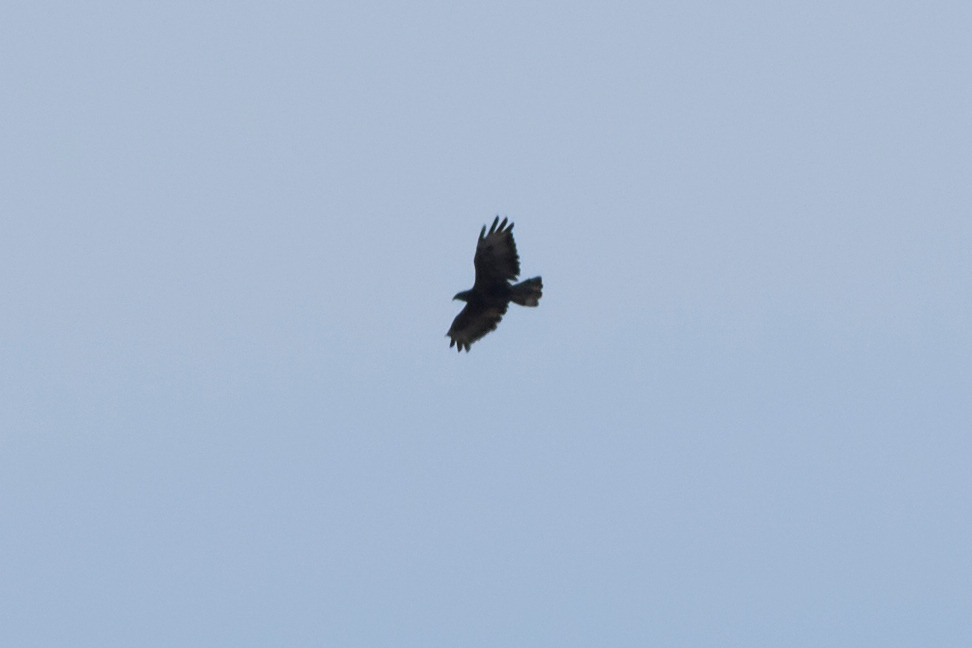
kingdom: Animalia
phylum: Chordata
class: Aves
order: Accipitriformes
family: Accipitridae
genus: Pernis
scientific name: Pernis apivorus
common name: Hvepsevåge
